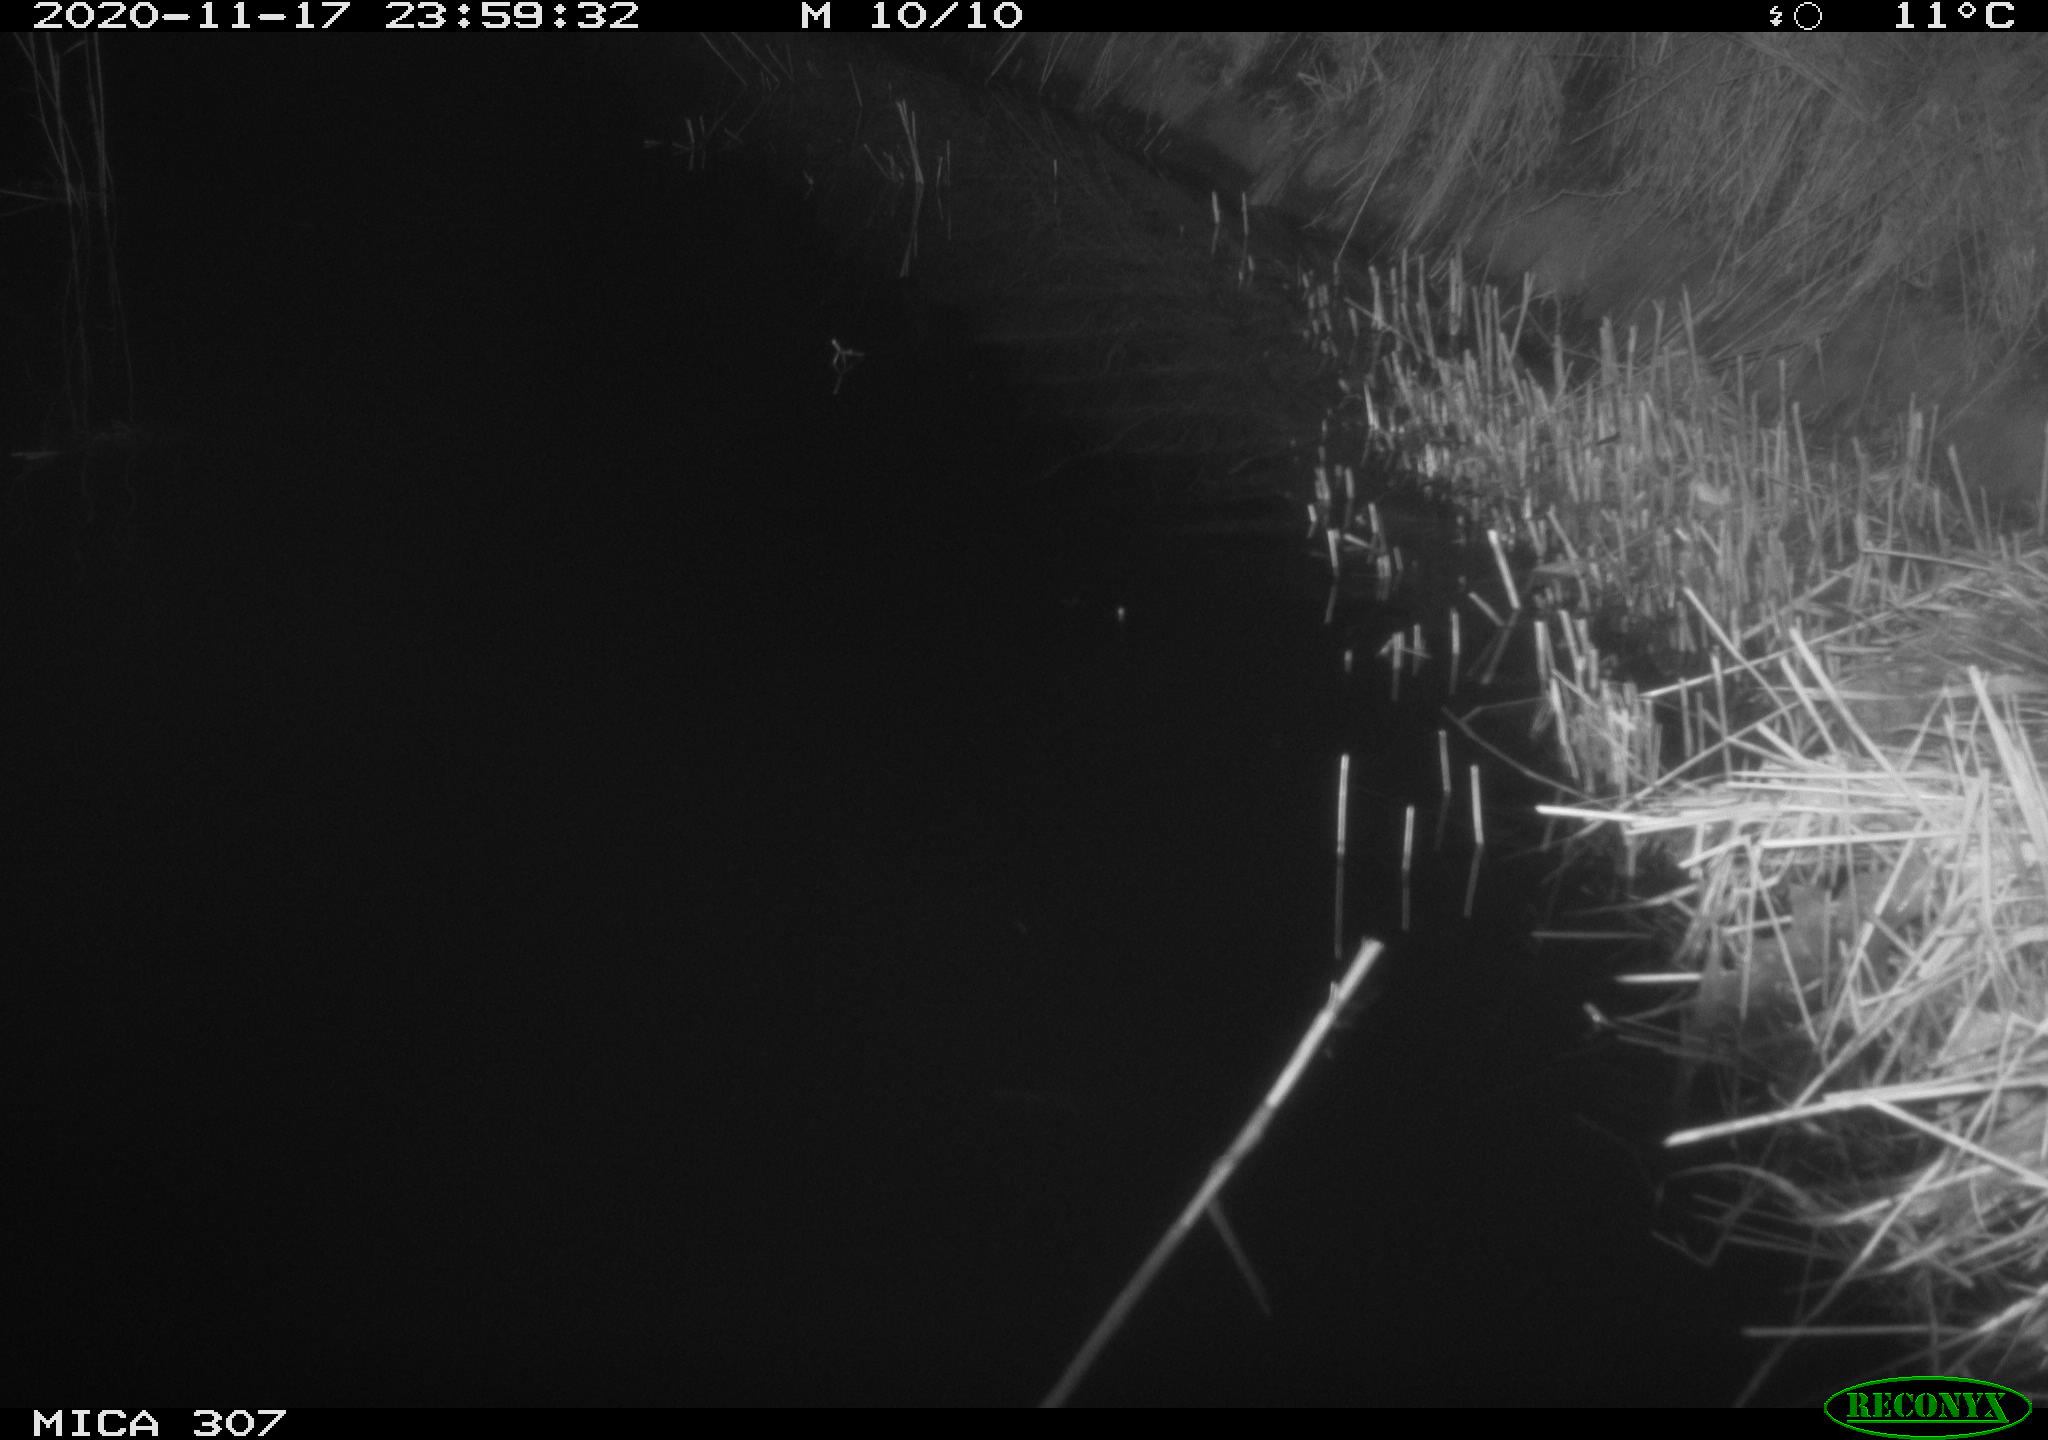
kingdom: Animalia
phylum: Chordata
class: Mammalia
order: Rodentia
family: Muridae
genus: Rattus
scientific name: Rattus norvegicus
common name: Brown rat
